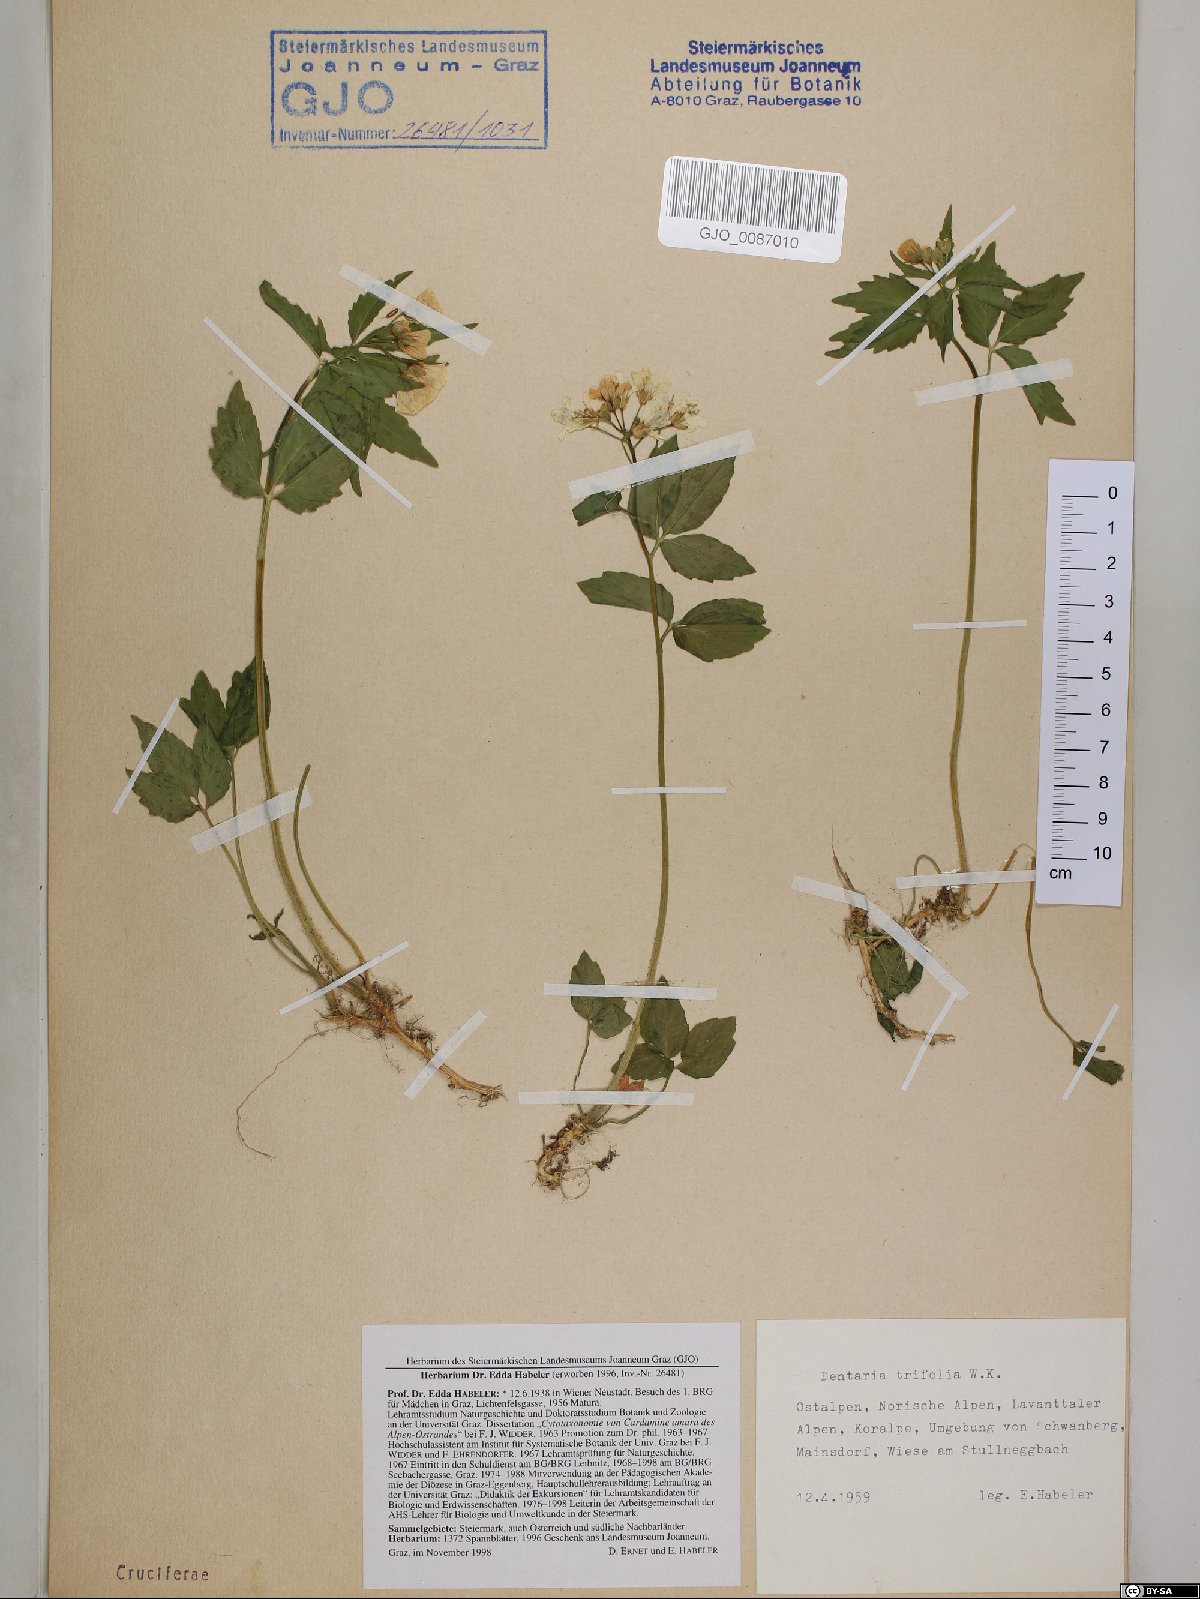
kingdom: Plantae
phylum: Tracheophyta
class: Magnoliopsida
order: Brassicales
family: Brassicaceae
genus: Cardamine
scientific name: Cardamine waldsteinii
